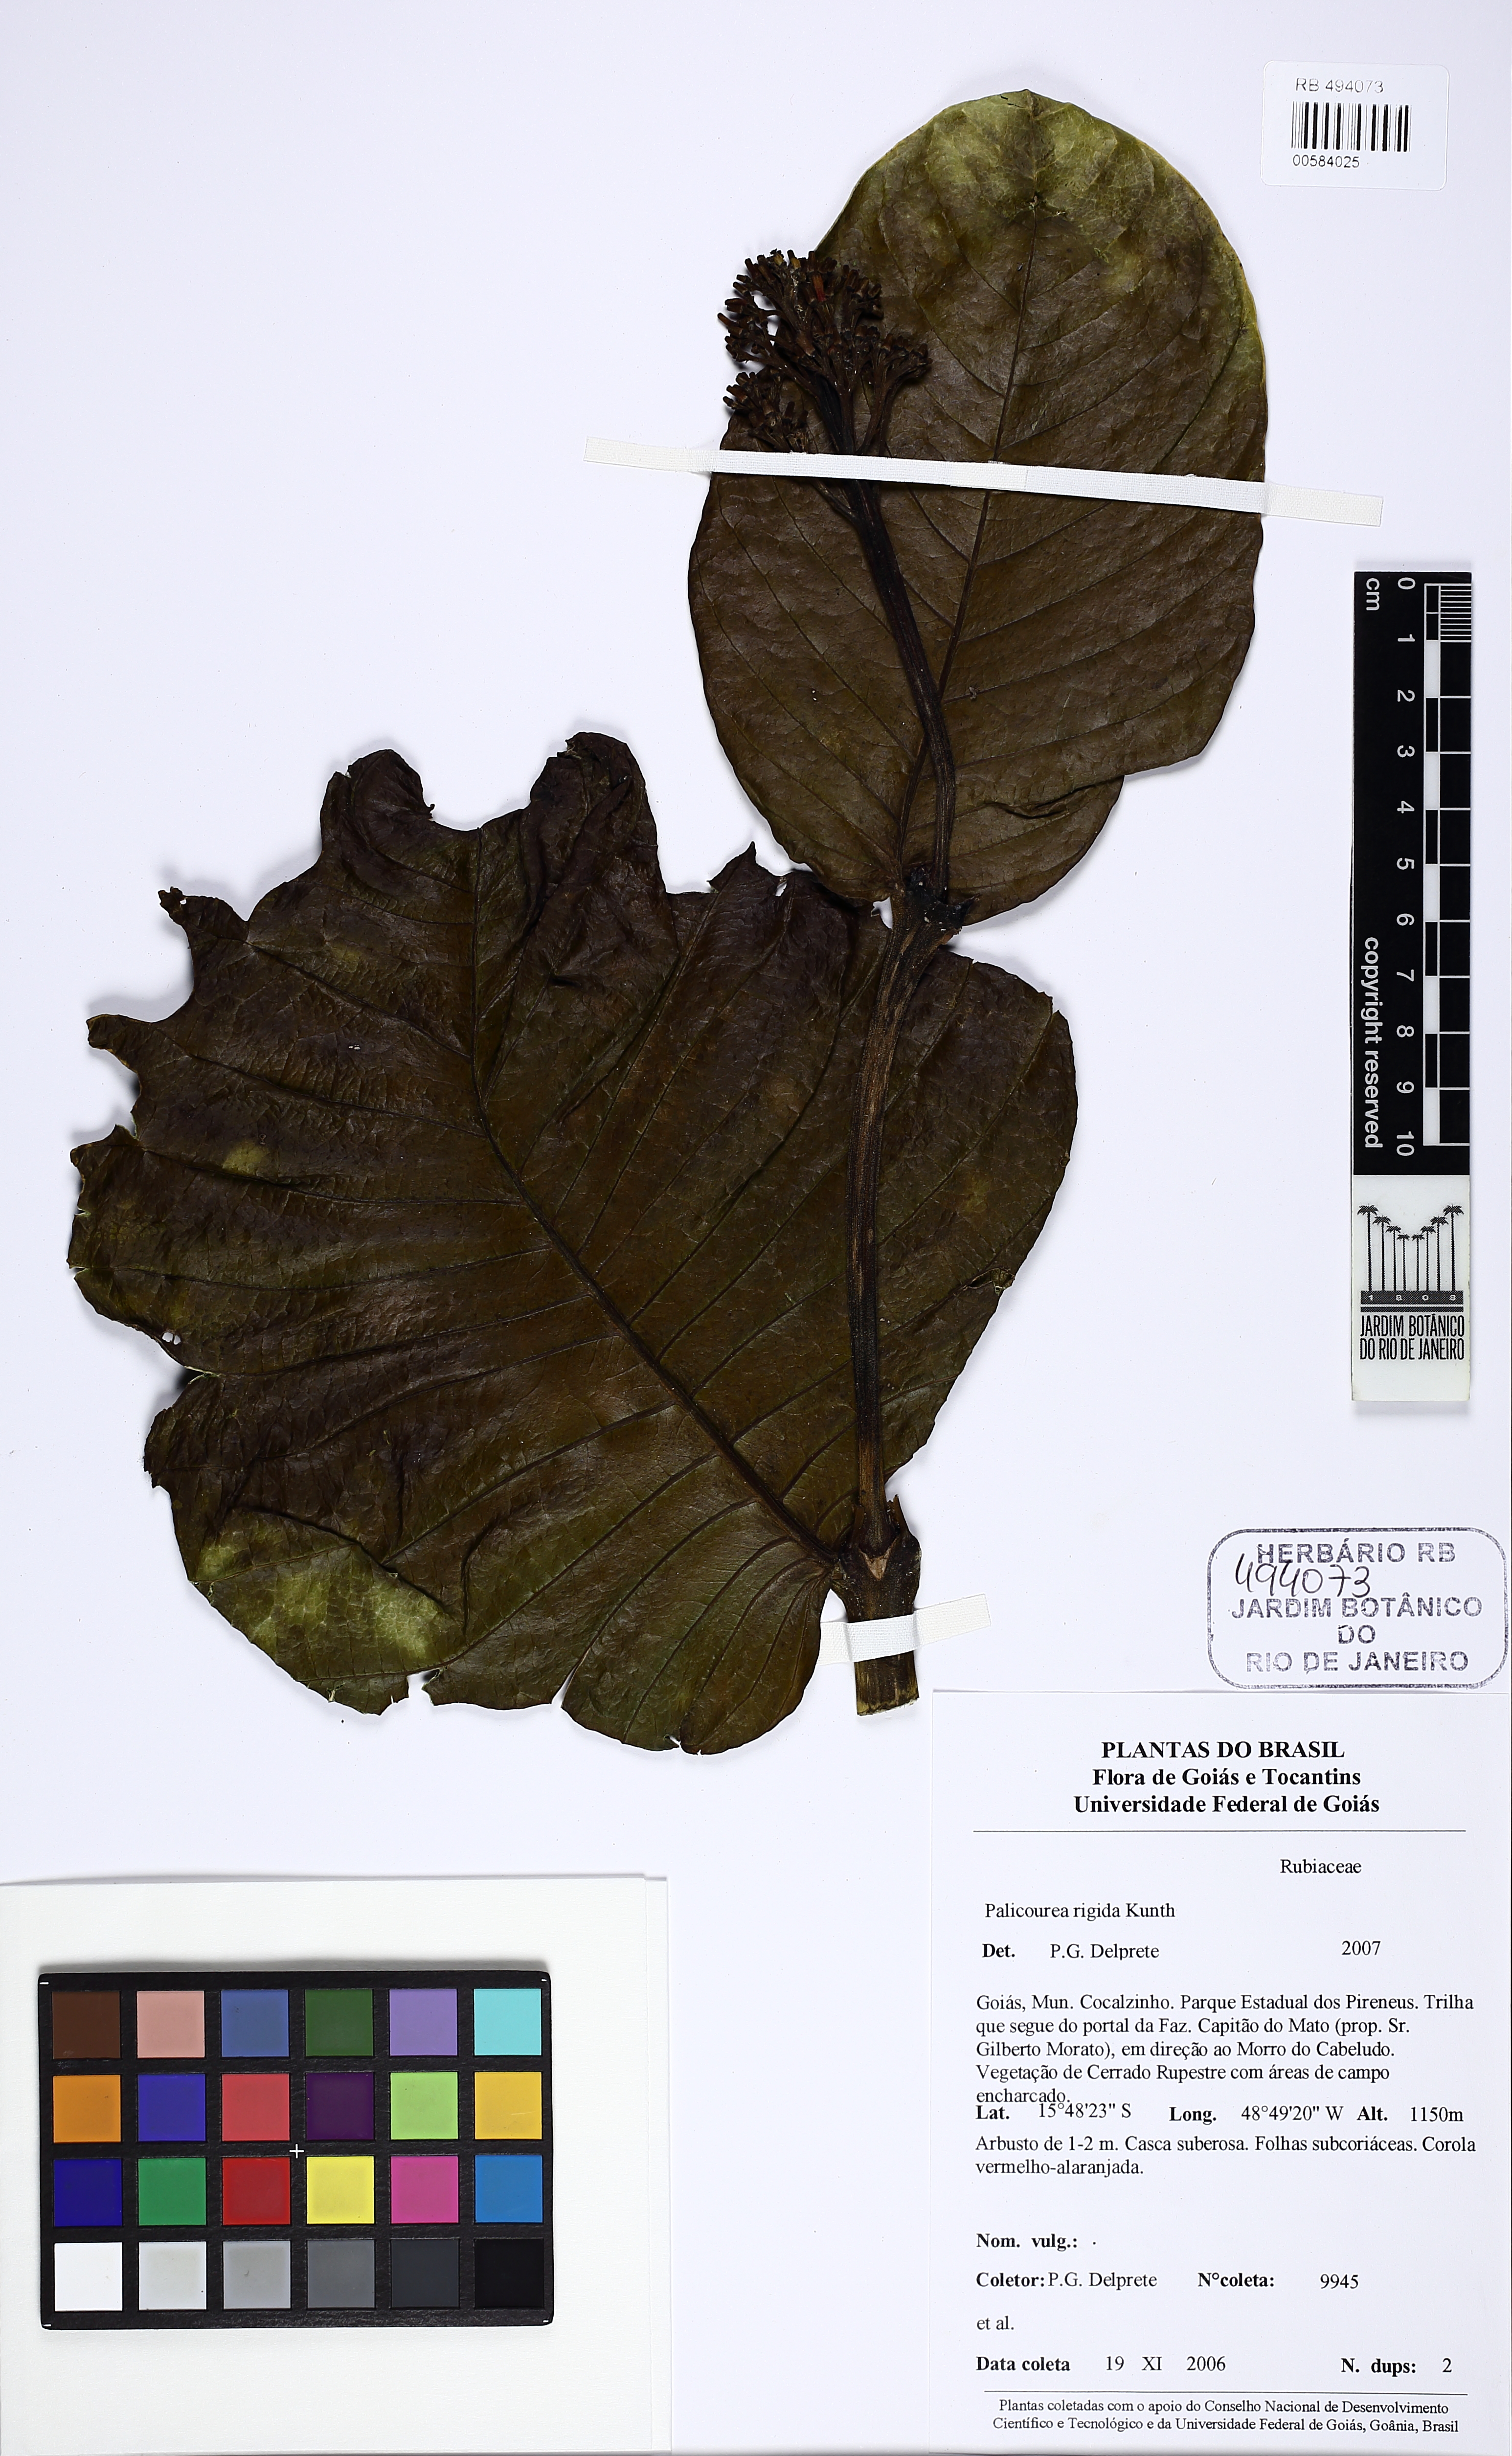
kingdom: Plantae
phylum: Tracheophyta
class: Magnoliopsida
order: Gentianales
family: Rubiaceae
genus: Palicourea
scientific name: Palicourea rigida
